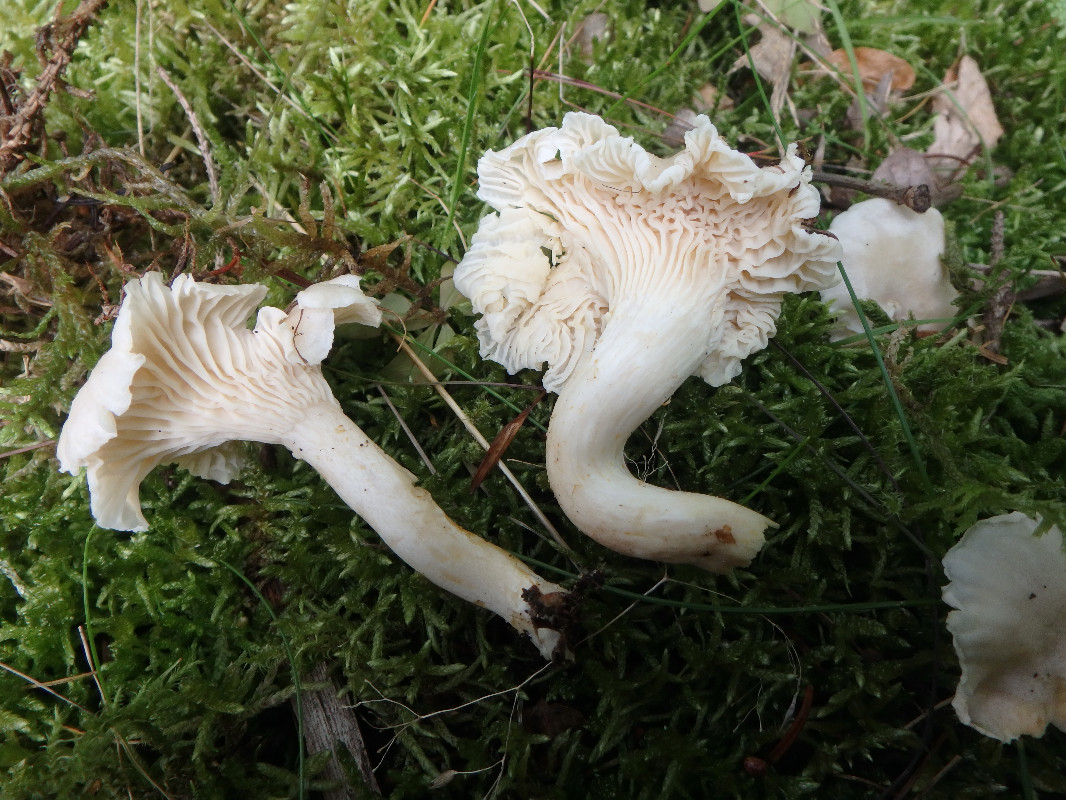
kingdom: Fungi
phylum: Basidiomycota
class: Agaricomycetes
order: Cantharellales
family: Hydnaceae
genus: Cantharellus
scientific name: Cantharellus cibarius
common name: almindelig kantarel
